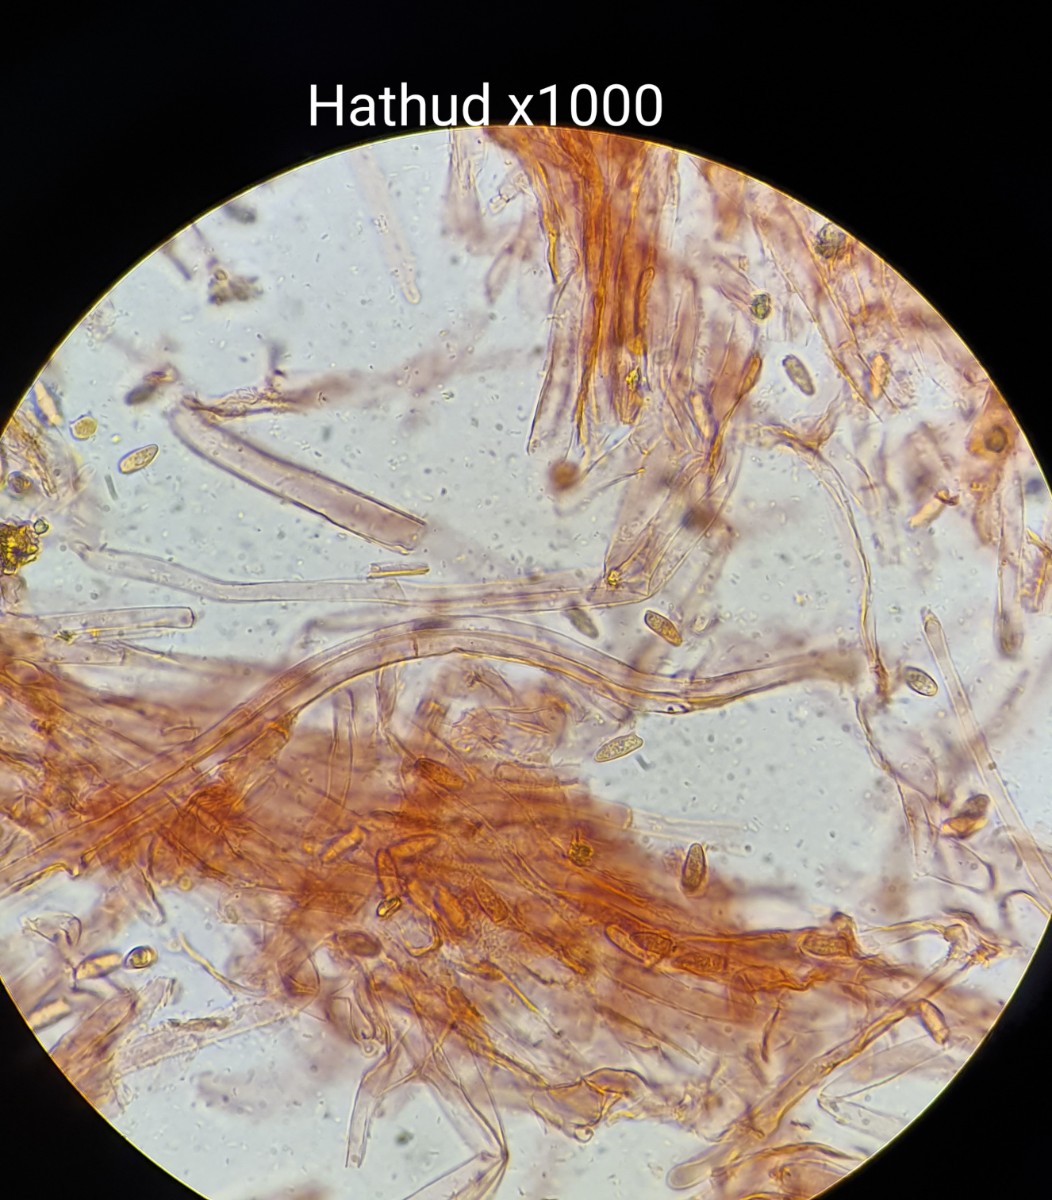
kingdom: Fungi
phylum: Basidiomycota
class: Agaricomycetes
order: Agaricales
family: Agaricaceae
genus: Leucocoprinus
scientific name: Leucocoprinus straminellus
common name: rustbrun parasolhat
